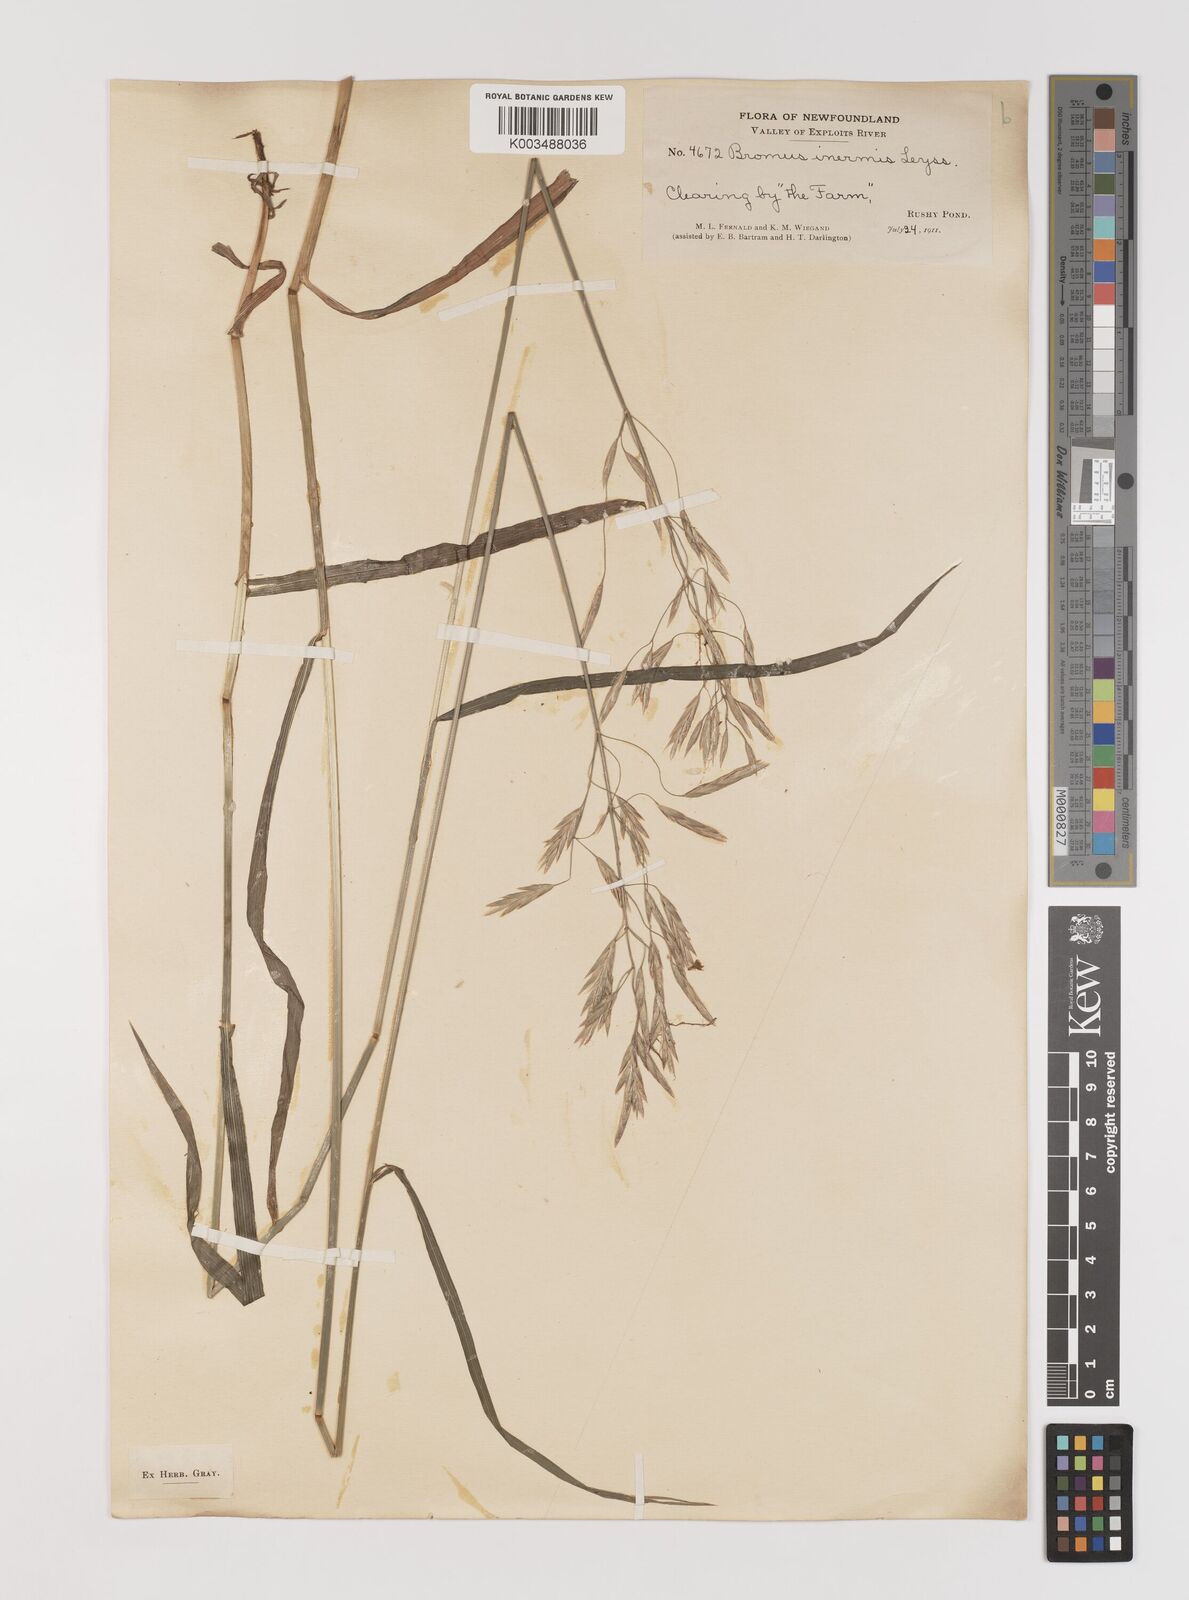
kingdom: Plantae
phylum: Tracheophyta
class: Liliopsida
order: Poales
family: Poaceae
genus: Bromus
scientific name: Bromus inermis
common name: Smooth brome
